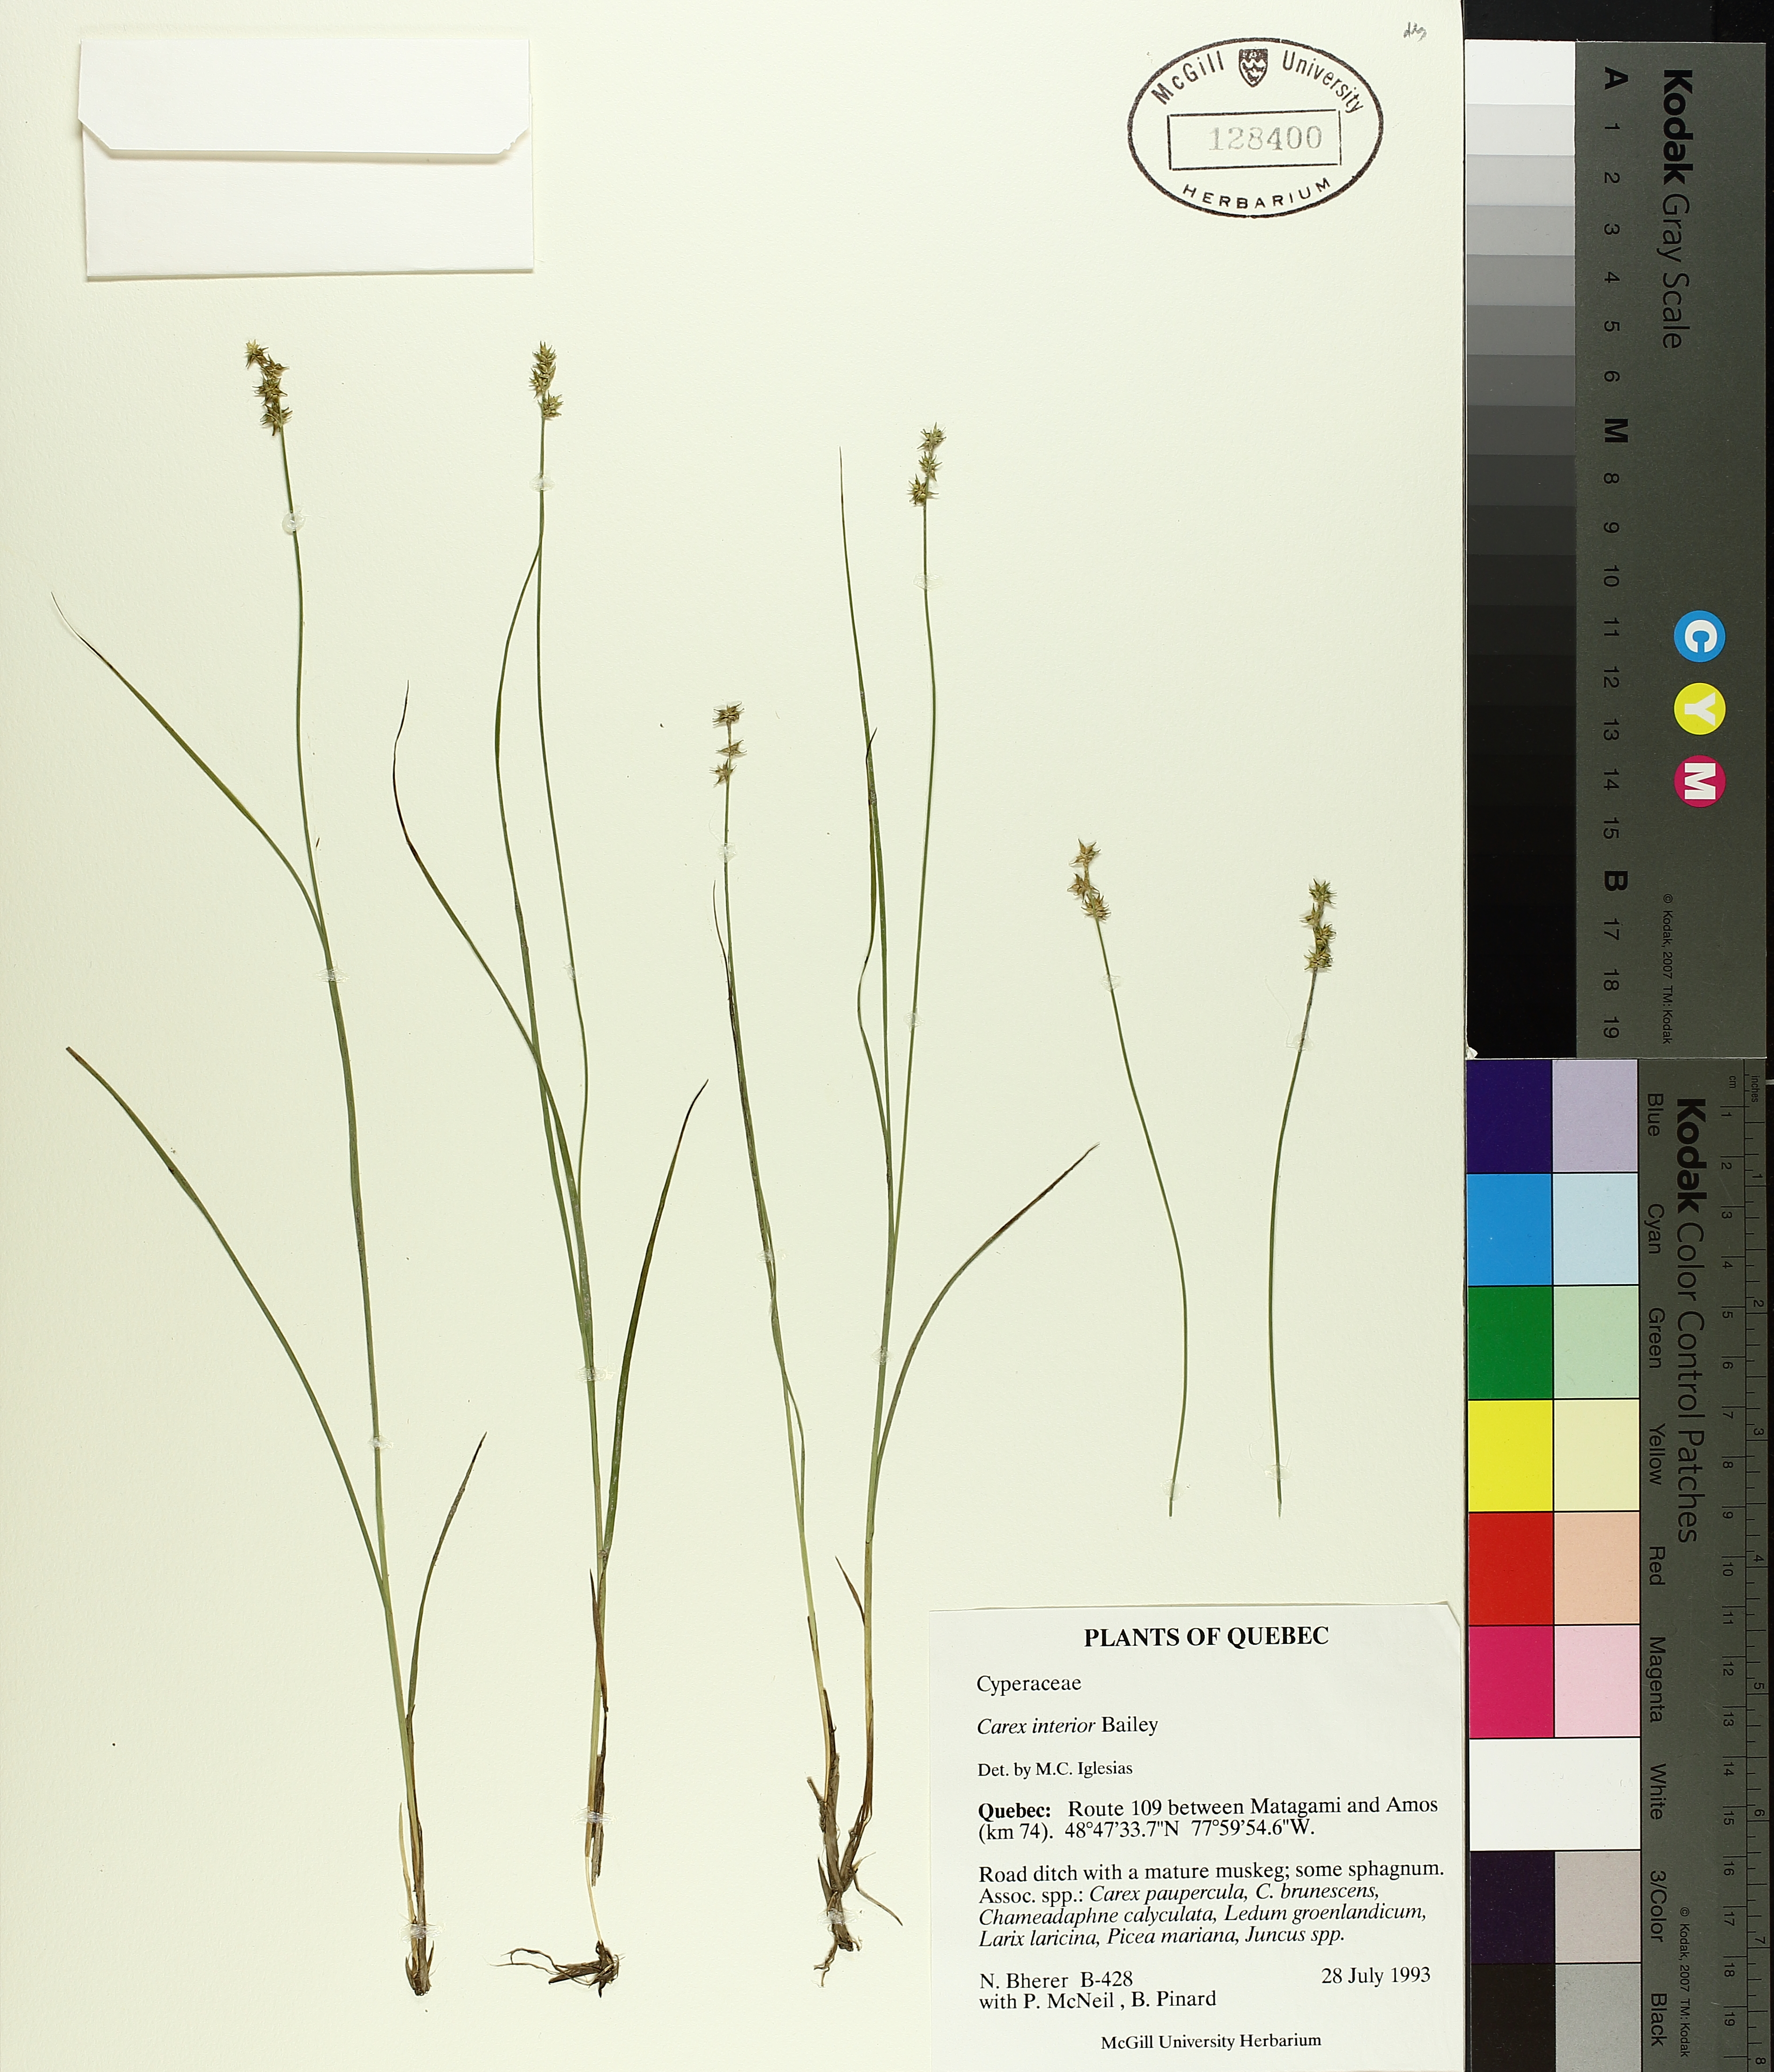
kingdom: Plantae
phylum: Tracheophyta
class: Liliopsida
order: Poales
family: Cyperaceae
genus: Carex
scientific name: Carex interior
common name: Inland sedge
